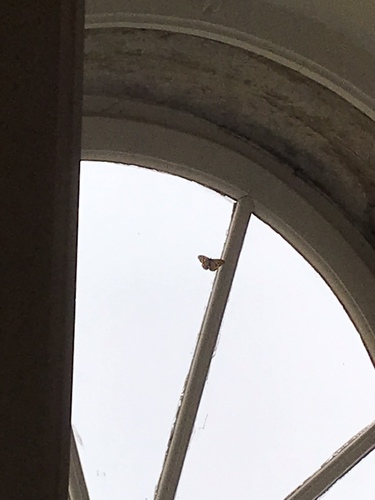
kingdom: Animalia
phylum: Arthropoda
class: Insecta
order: Lepidoptera
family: Nymphalidae
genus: Pararge
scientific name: Pararge aegeria
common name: Speckled wood
